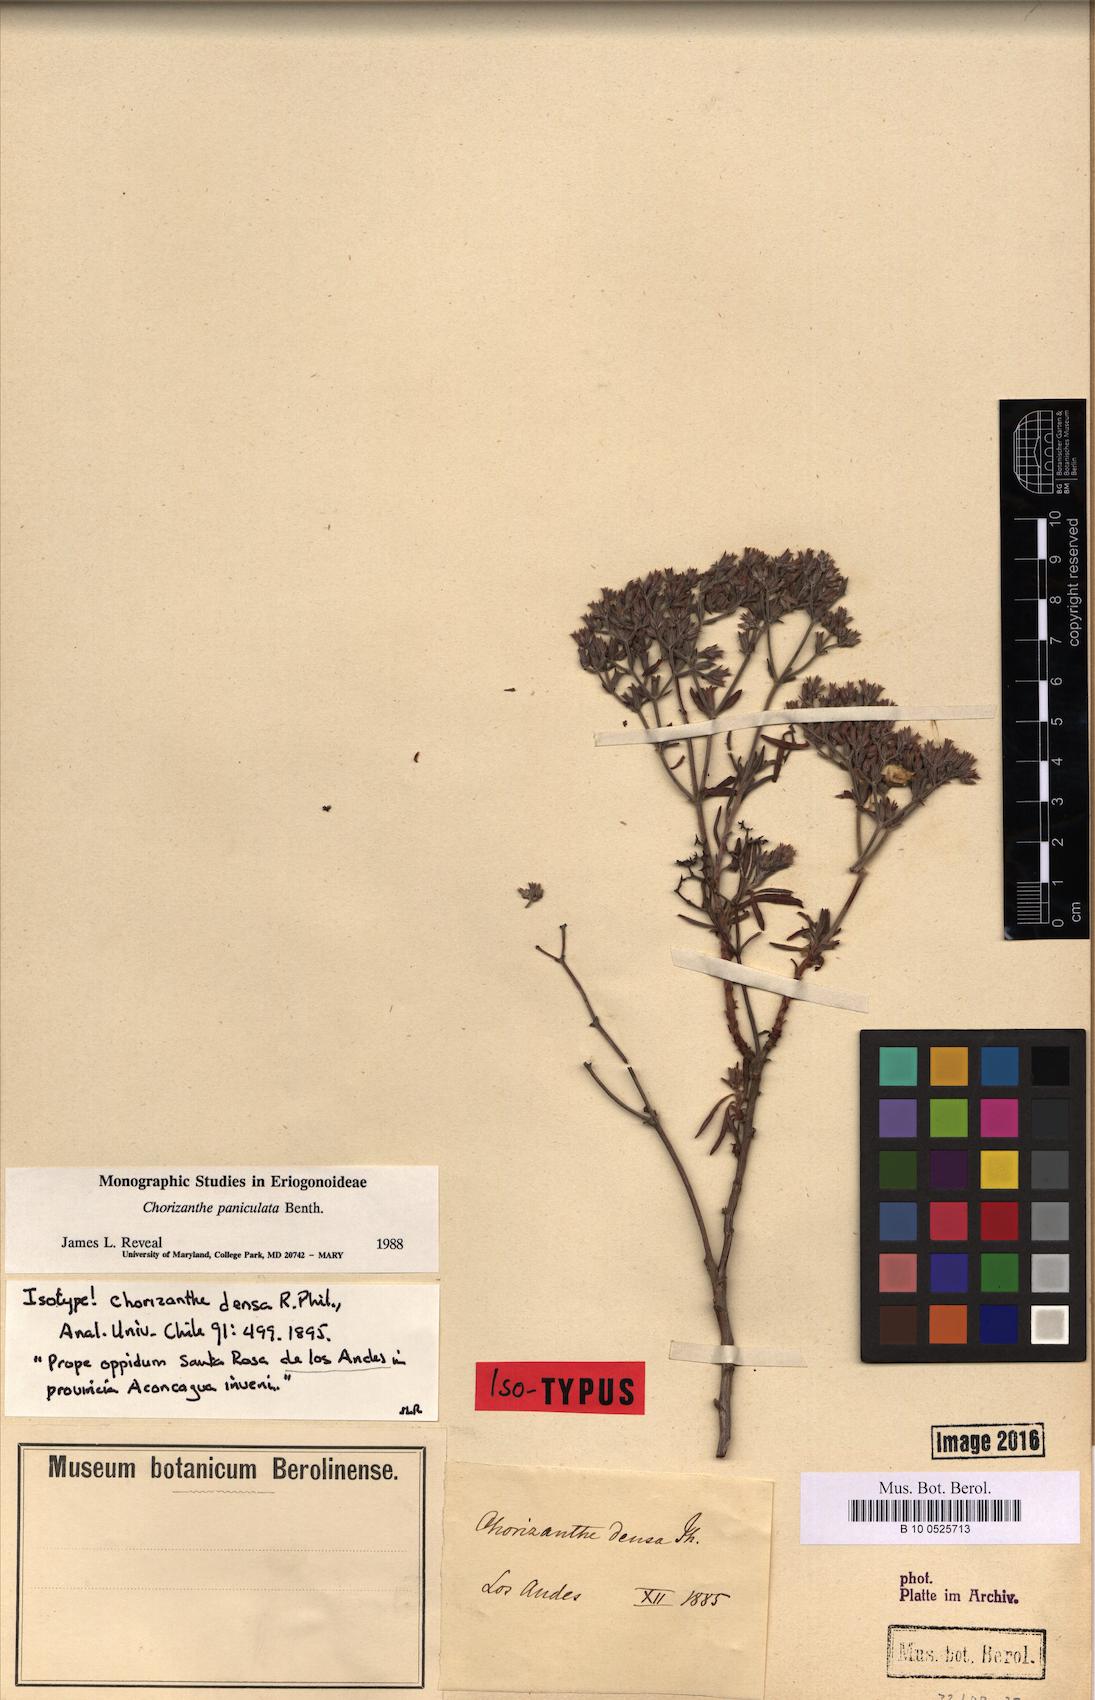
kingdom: Plantae
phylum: Tracheophyta
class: Magnoliopsida
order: Caryophyllales
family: Polygonaceae
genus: Chorizanthe
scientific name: Chorizanthe paniculata
